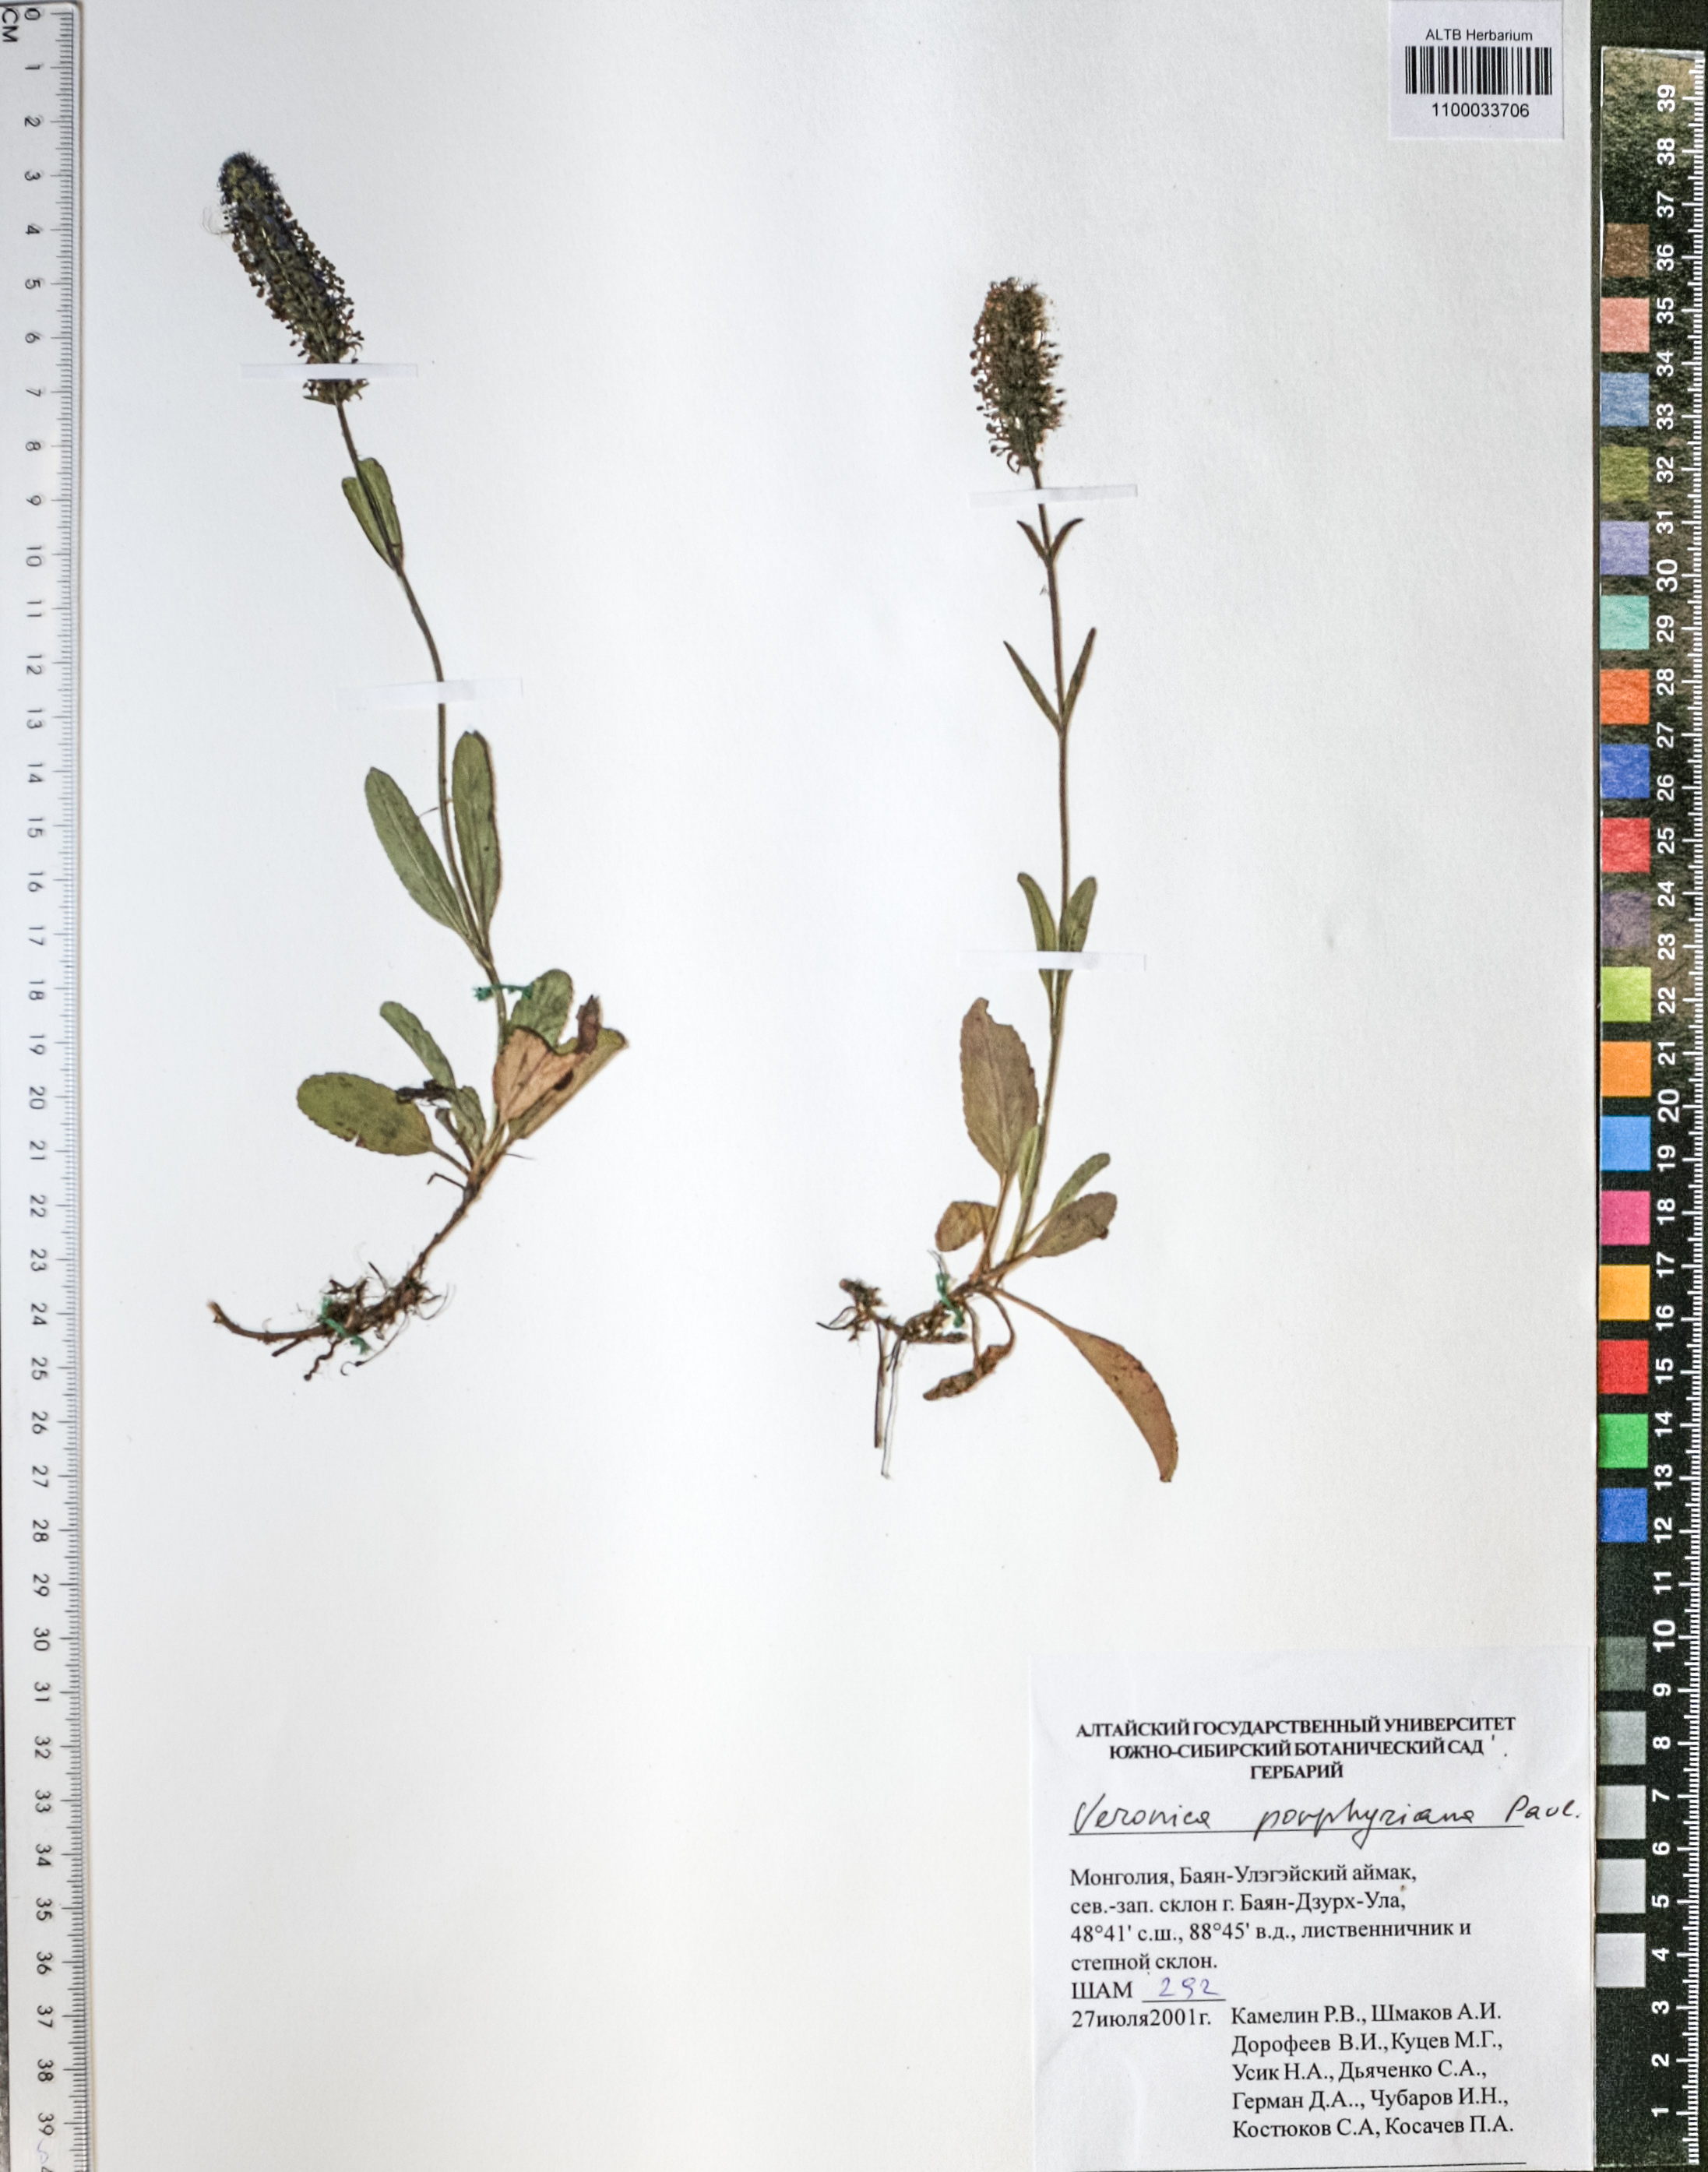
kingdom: Plantae
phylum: Tracheophyta
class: Magnoliopsida
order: Lamiales
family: Plantaginaceae
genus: Veronica
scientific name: Veronica porphyriana
